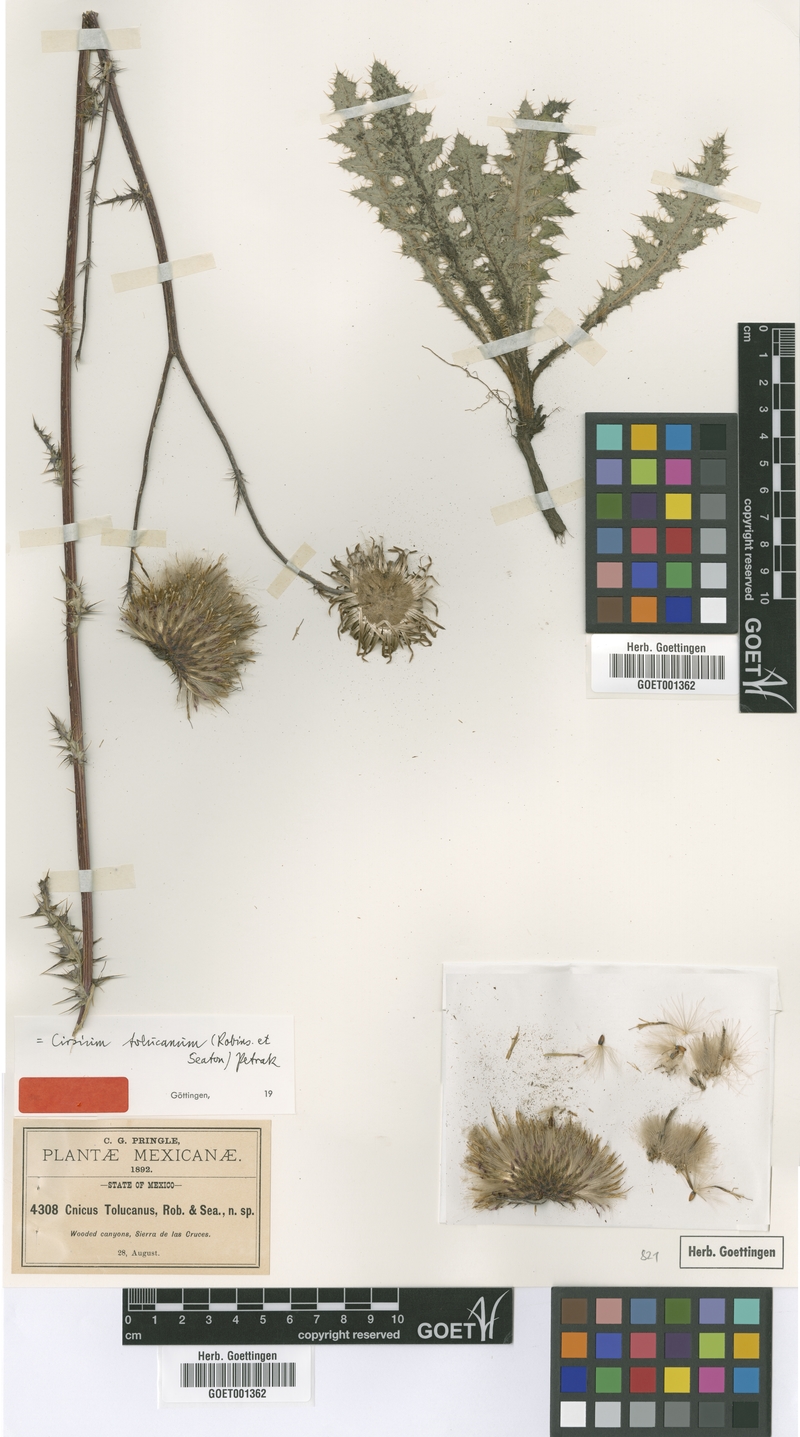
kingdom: Plantae
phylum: Tracheophyta
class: Magnoliopsida
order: Asterales
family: Asteraceae
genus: Cirsium
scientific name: Cirsium tolucanum
